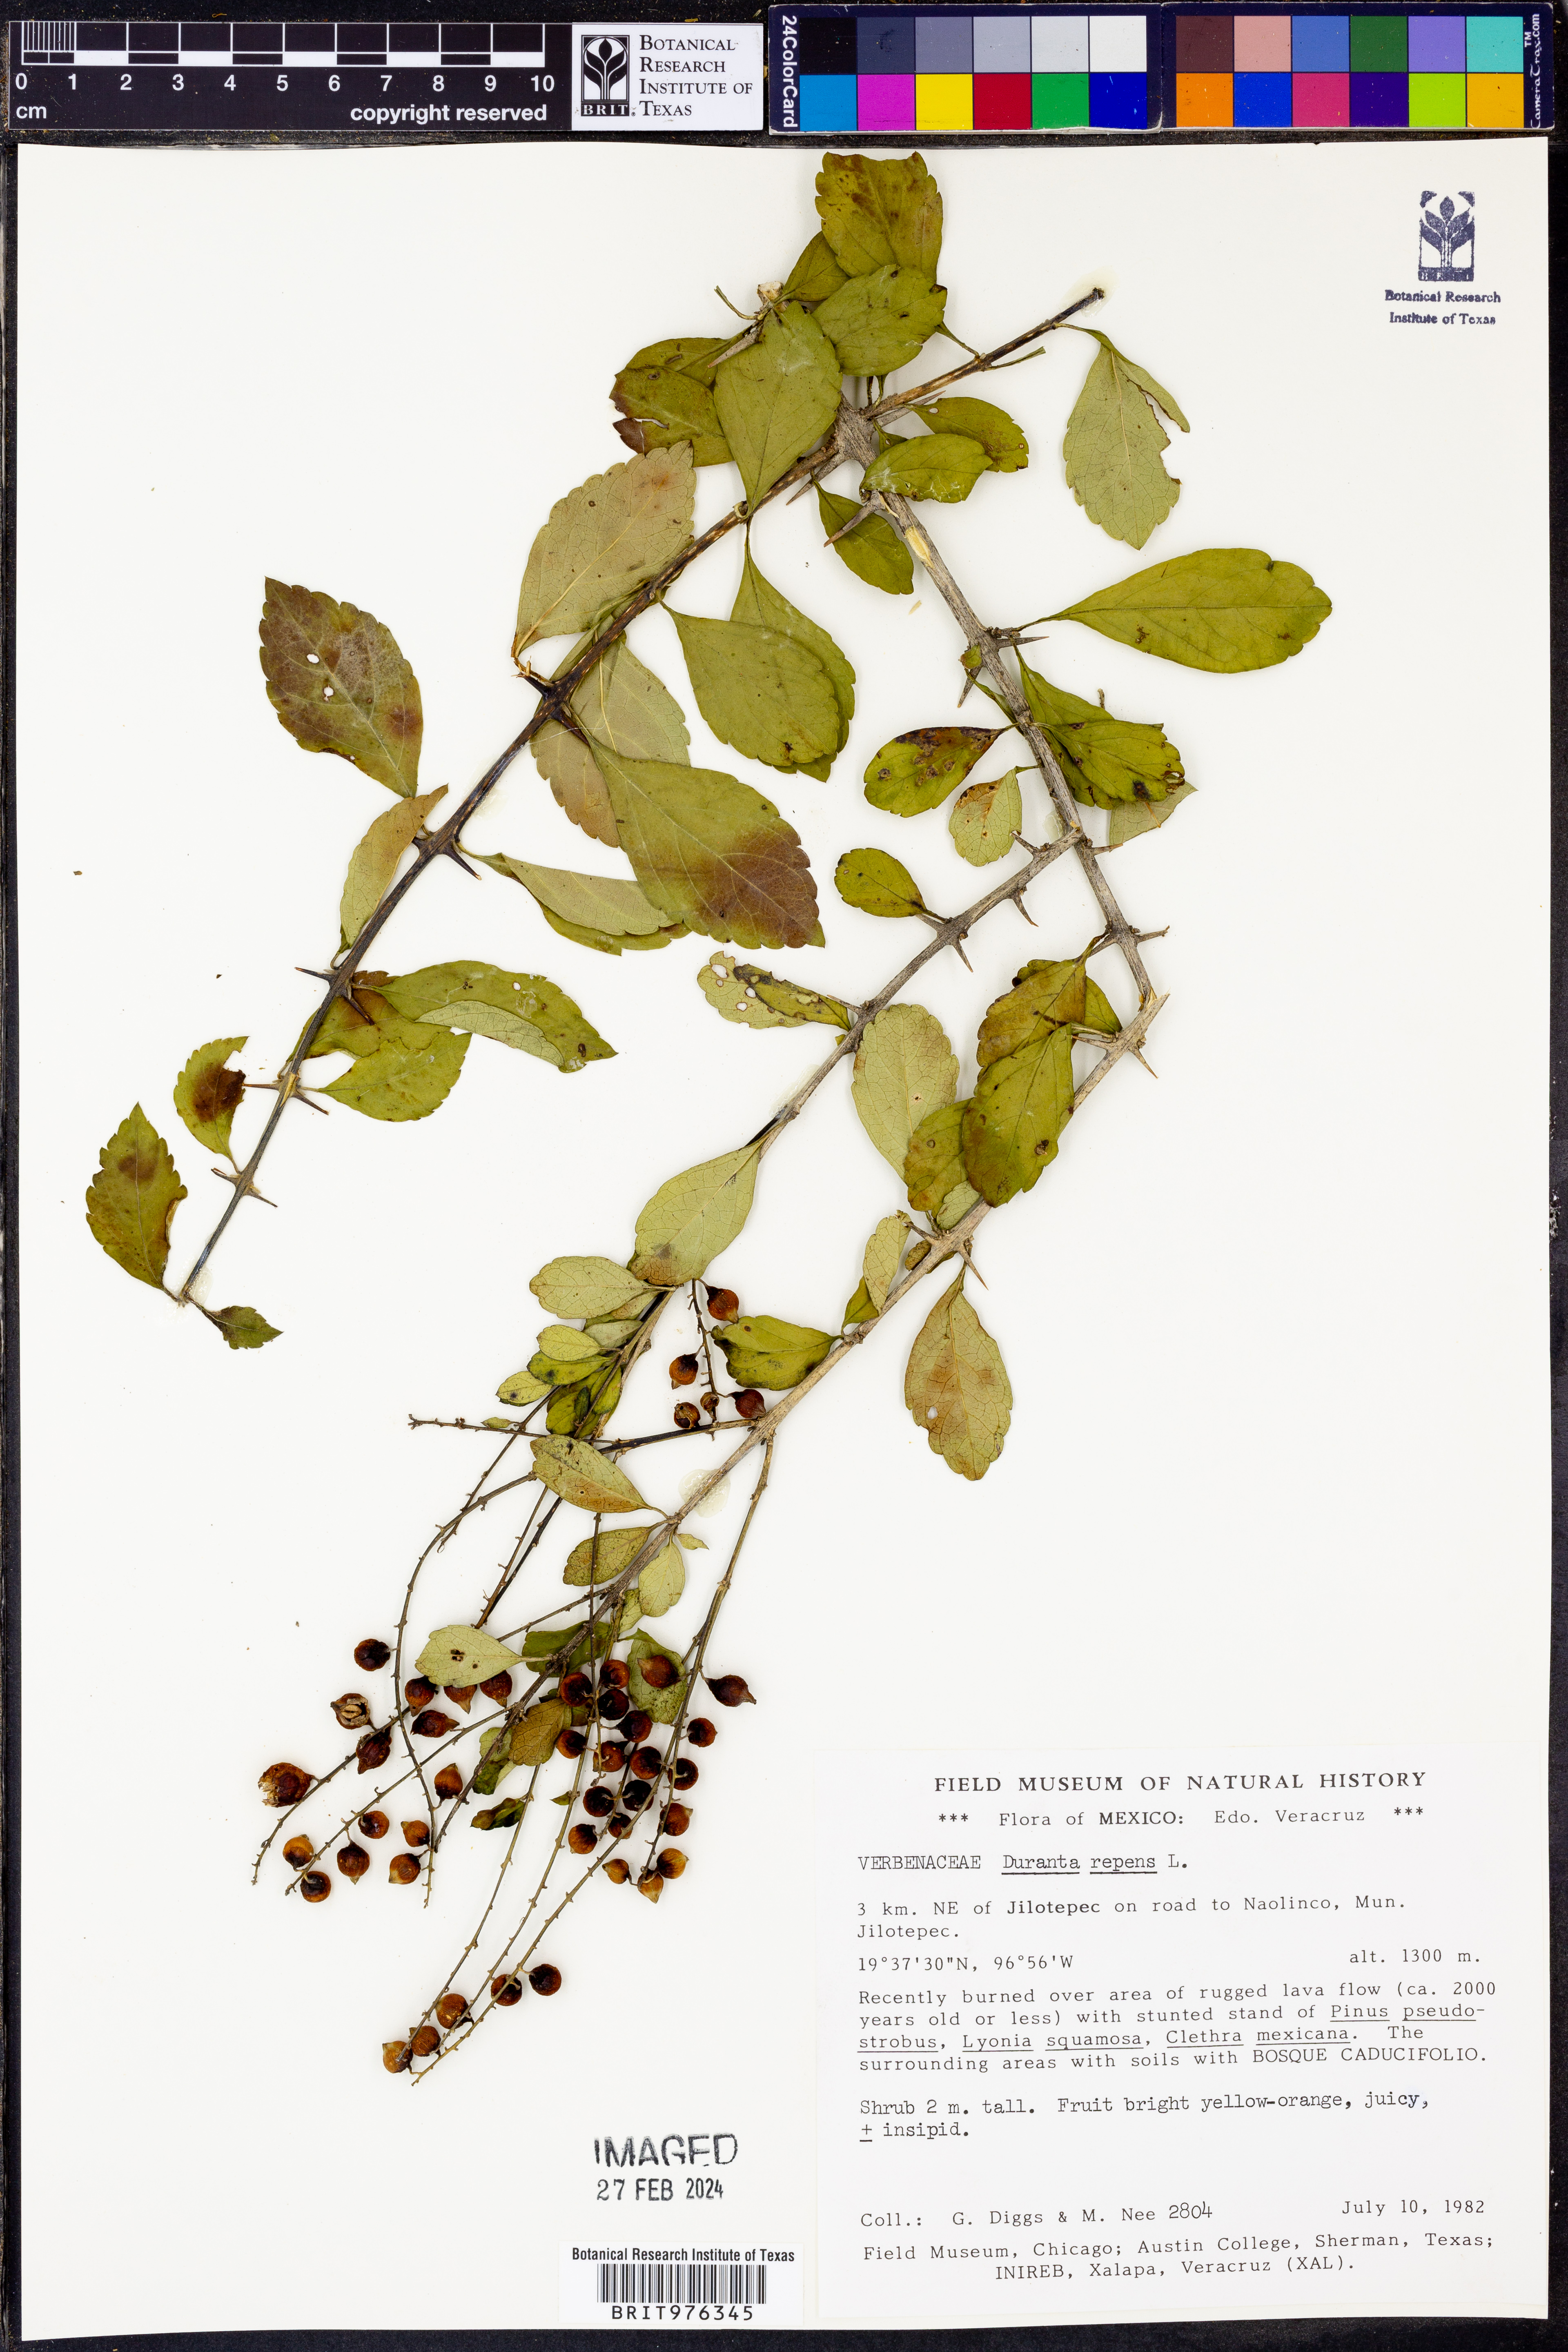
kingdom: Plantae
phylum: Tracheophyta
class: Magnoliopsida
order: Lamiales
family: Verbenaceae
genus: Duranta
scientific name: Duranta
